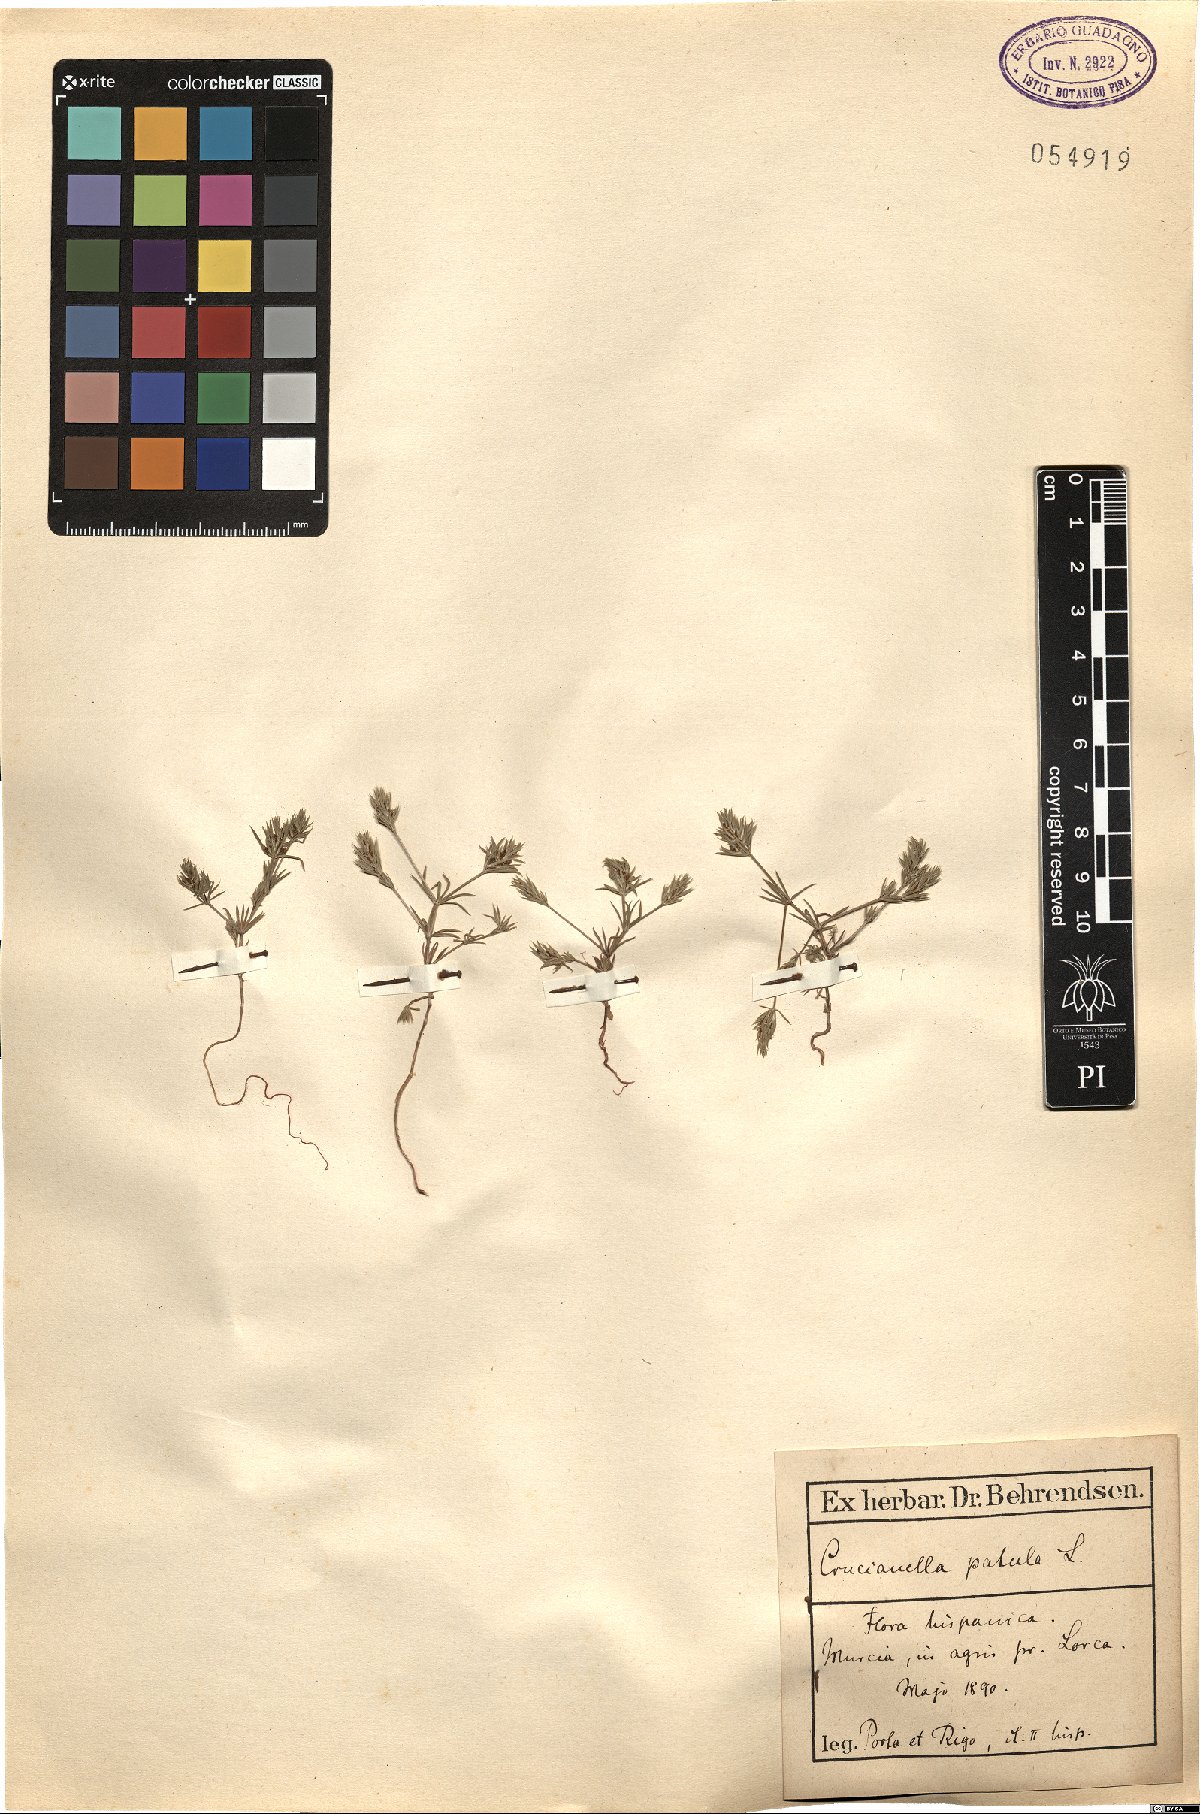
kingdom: Plantae
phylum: Tracheophyta
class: Magnoliopsida
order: Gentianales
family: Rubiaceae
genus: Crucianella
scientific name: Crucianella patula
